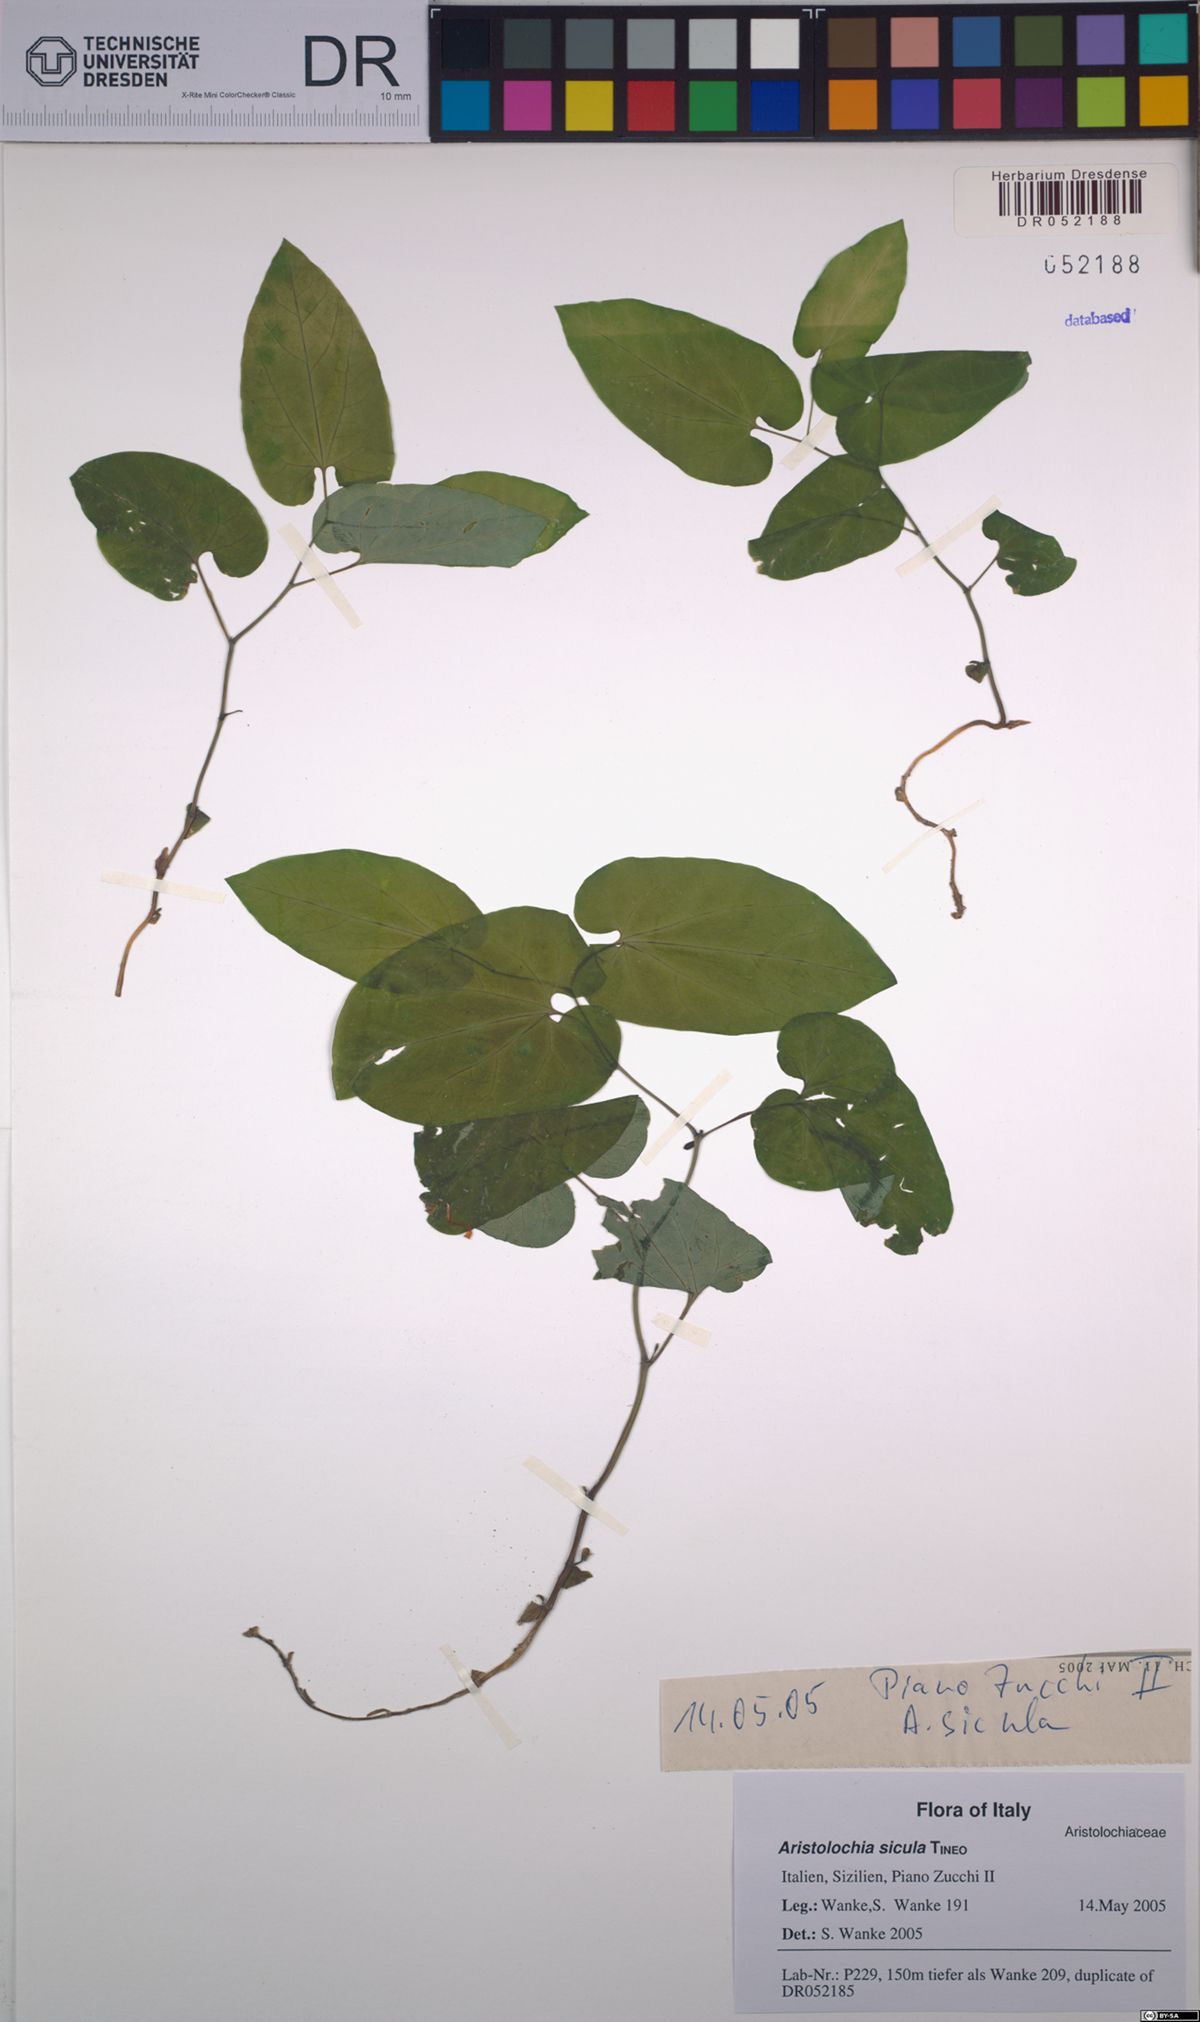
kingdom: Plantae
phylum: Tracheophyta
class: Magnoliopsida
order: Piperales
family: Aristolochiaceae
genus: Aristolochia
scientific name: Aristolochia sicula
